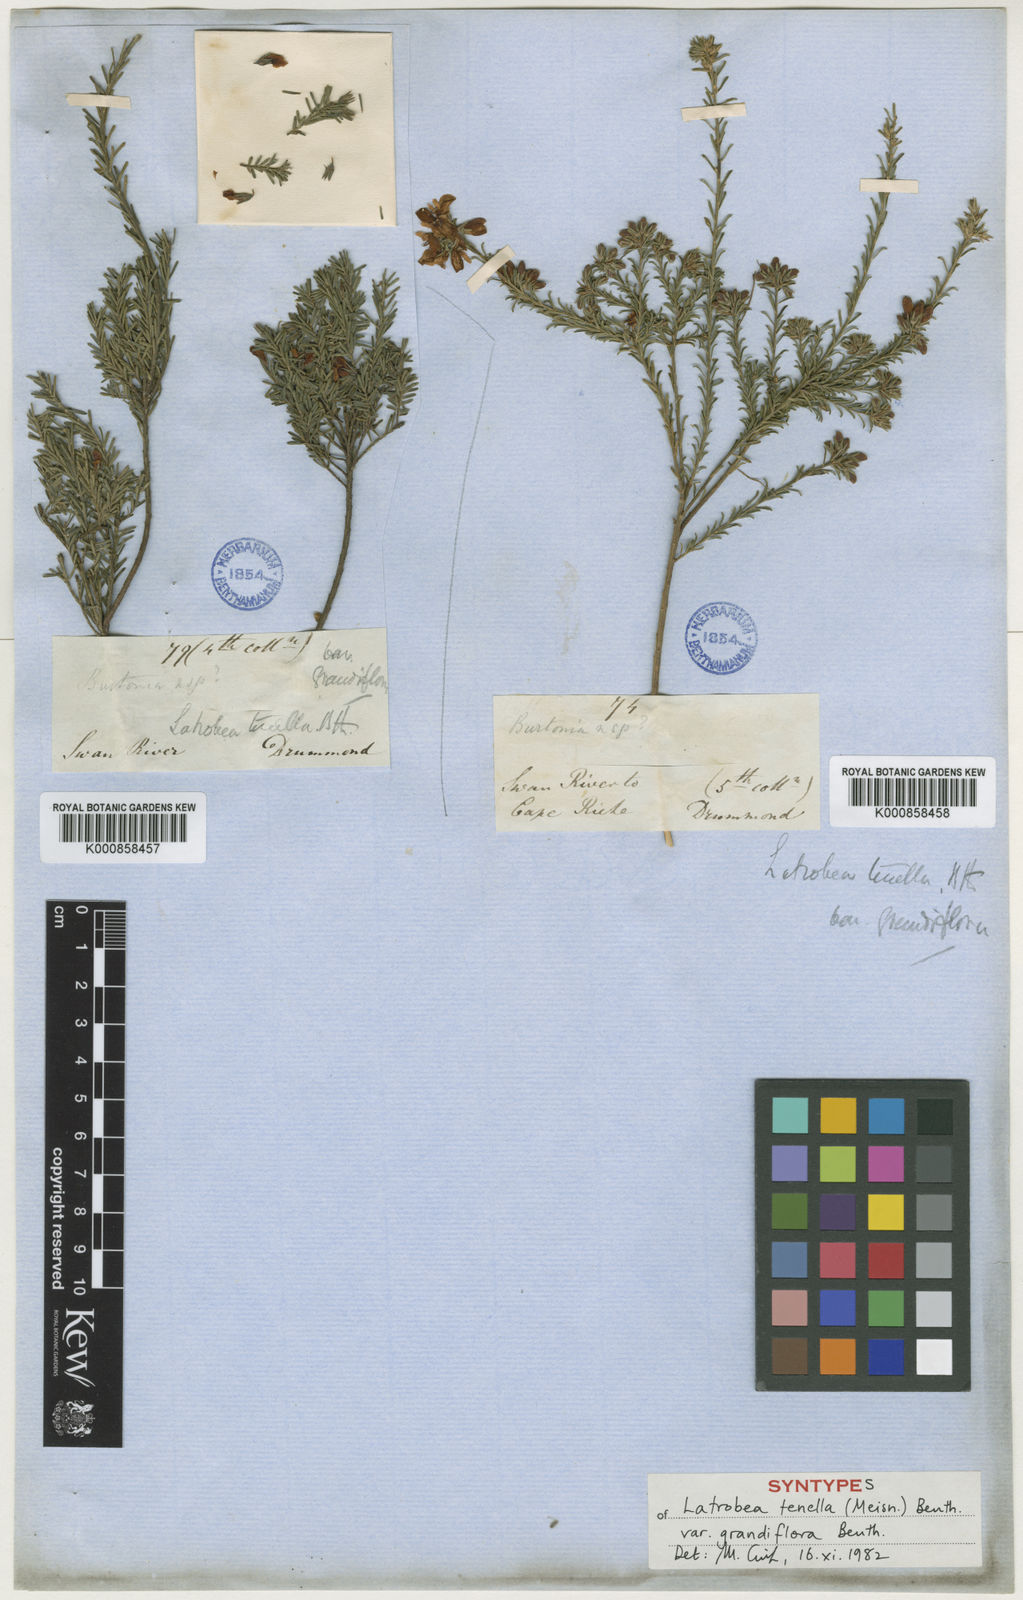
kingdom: Plantae
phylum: Tracheophyta
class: Magnoliopsida
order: Fabales
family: Fabaceae
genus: Latrobea
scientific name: Latrobea tenella
